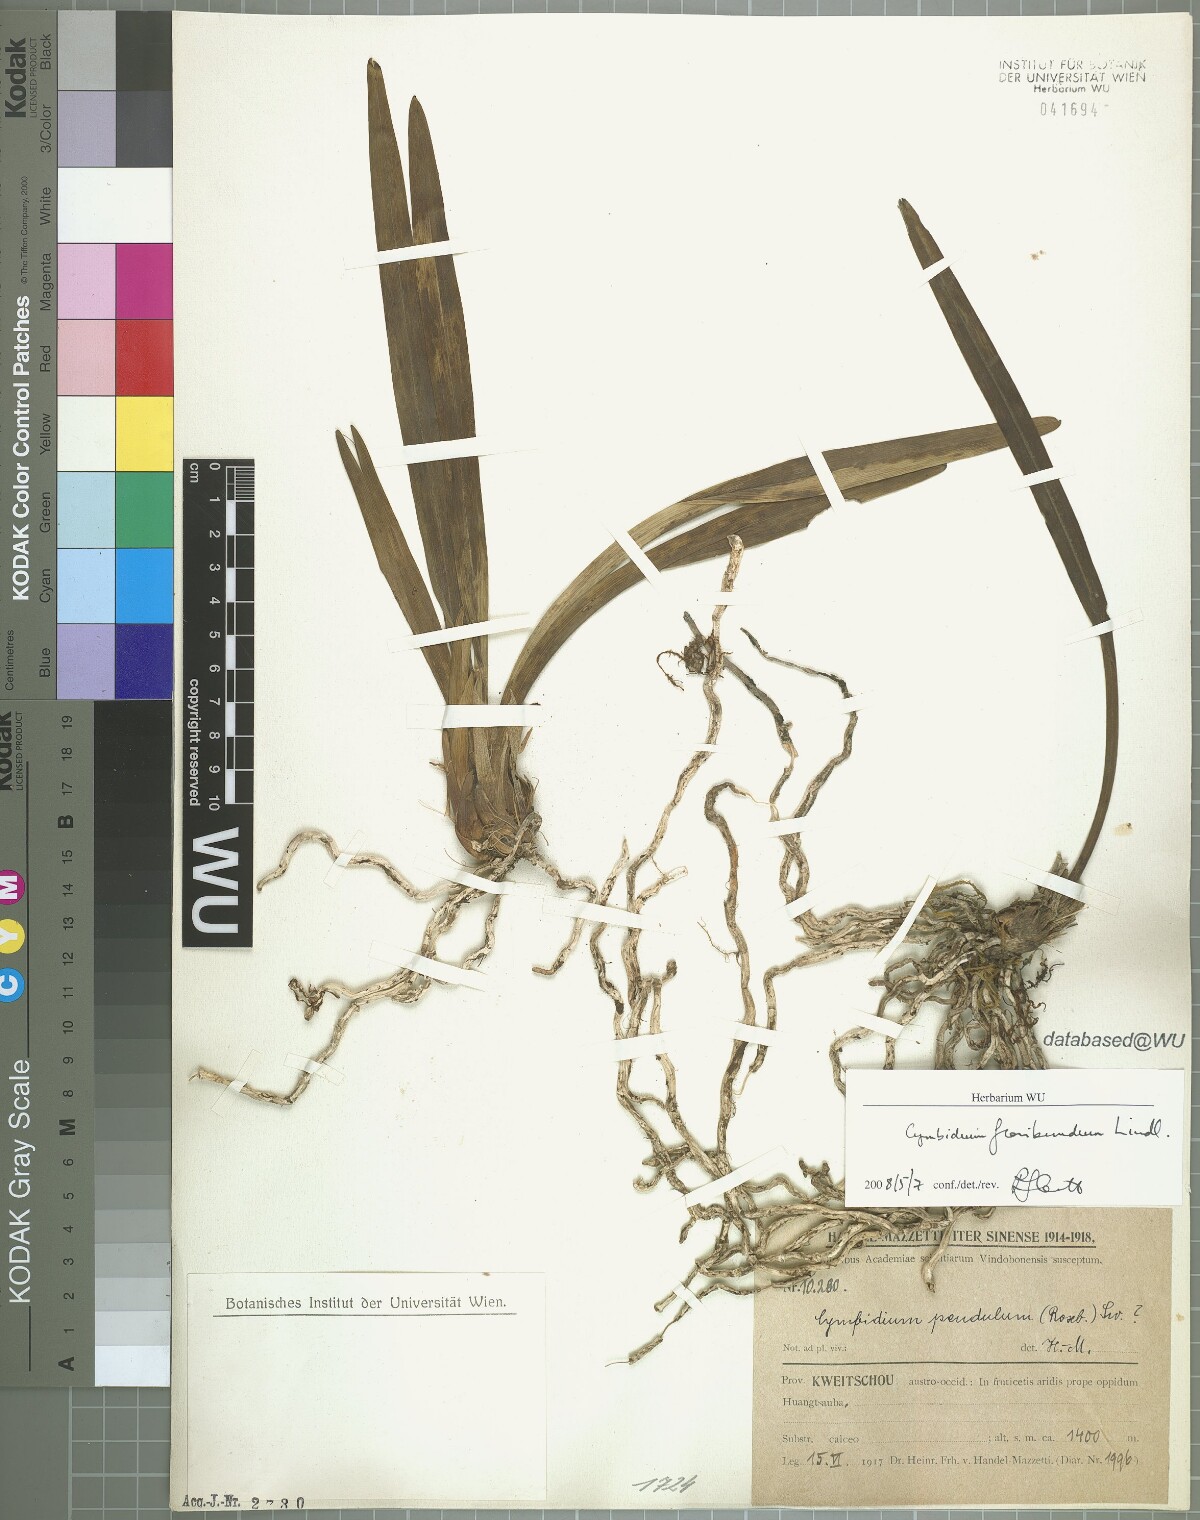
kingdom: Plantae
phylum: Tracheophyta
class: Liliopsida
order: Asparagales
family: Orchidaceae
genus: Cymbidium
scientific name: Cymbidium floribundum
